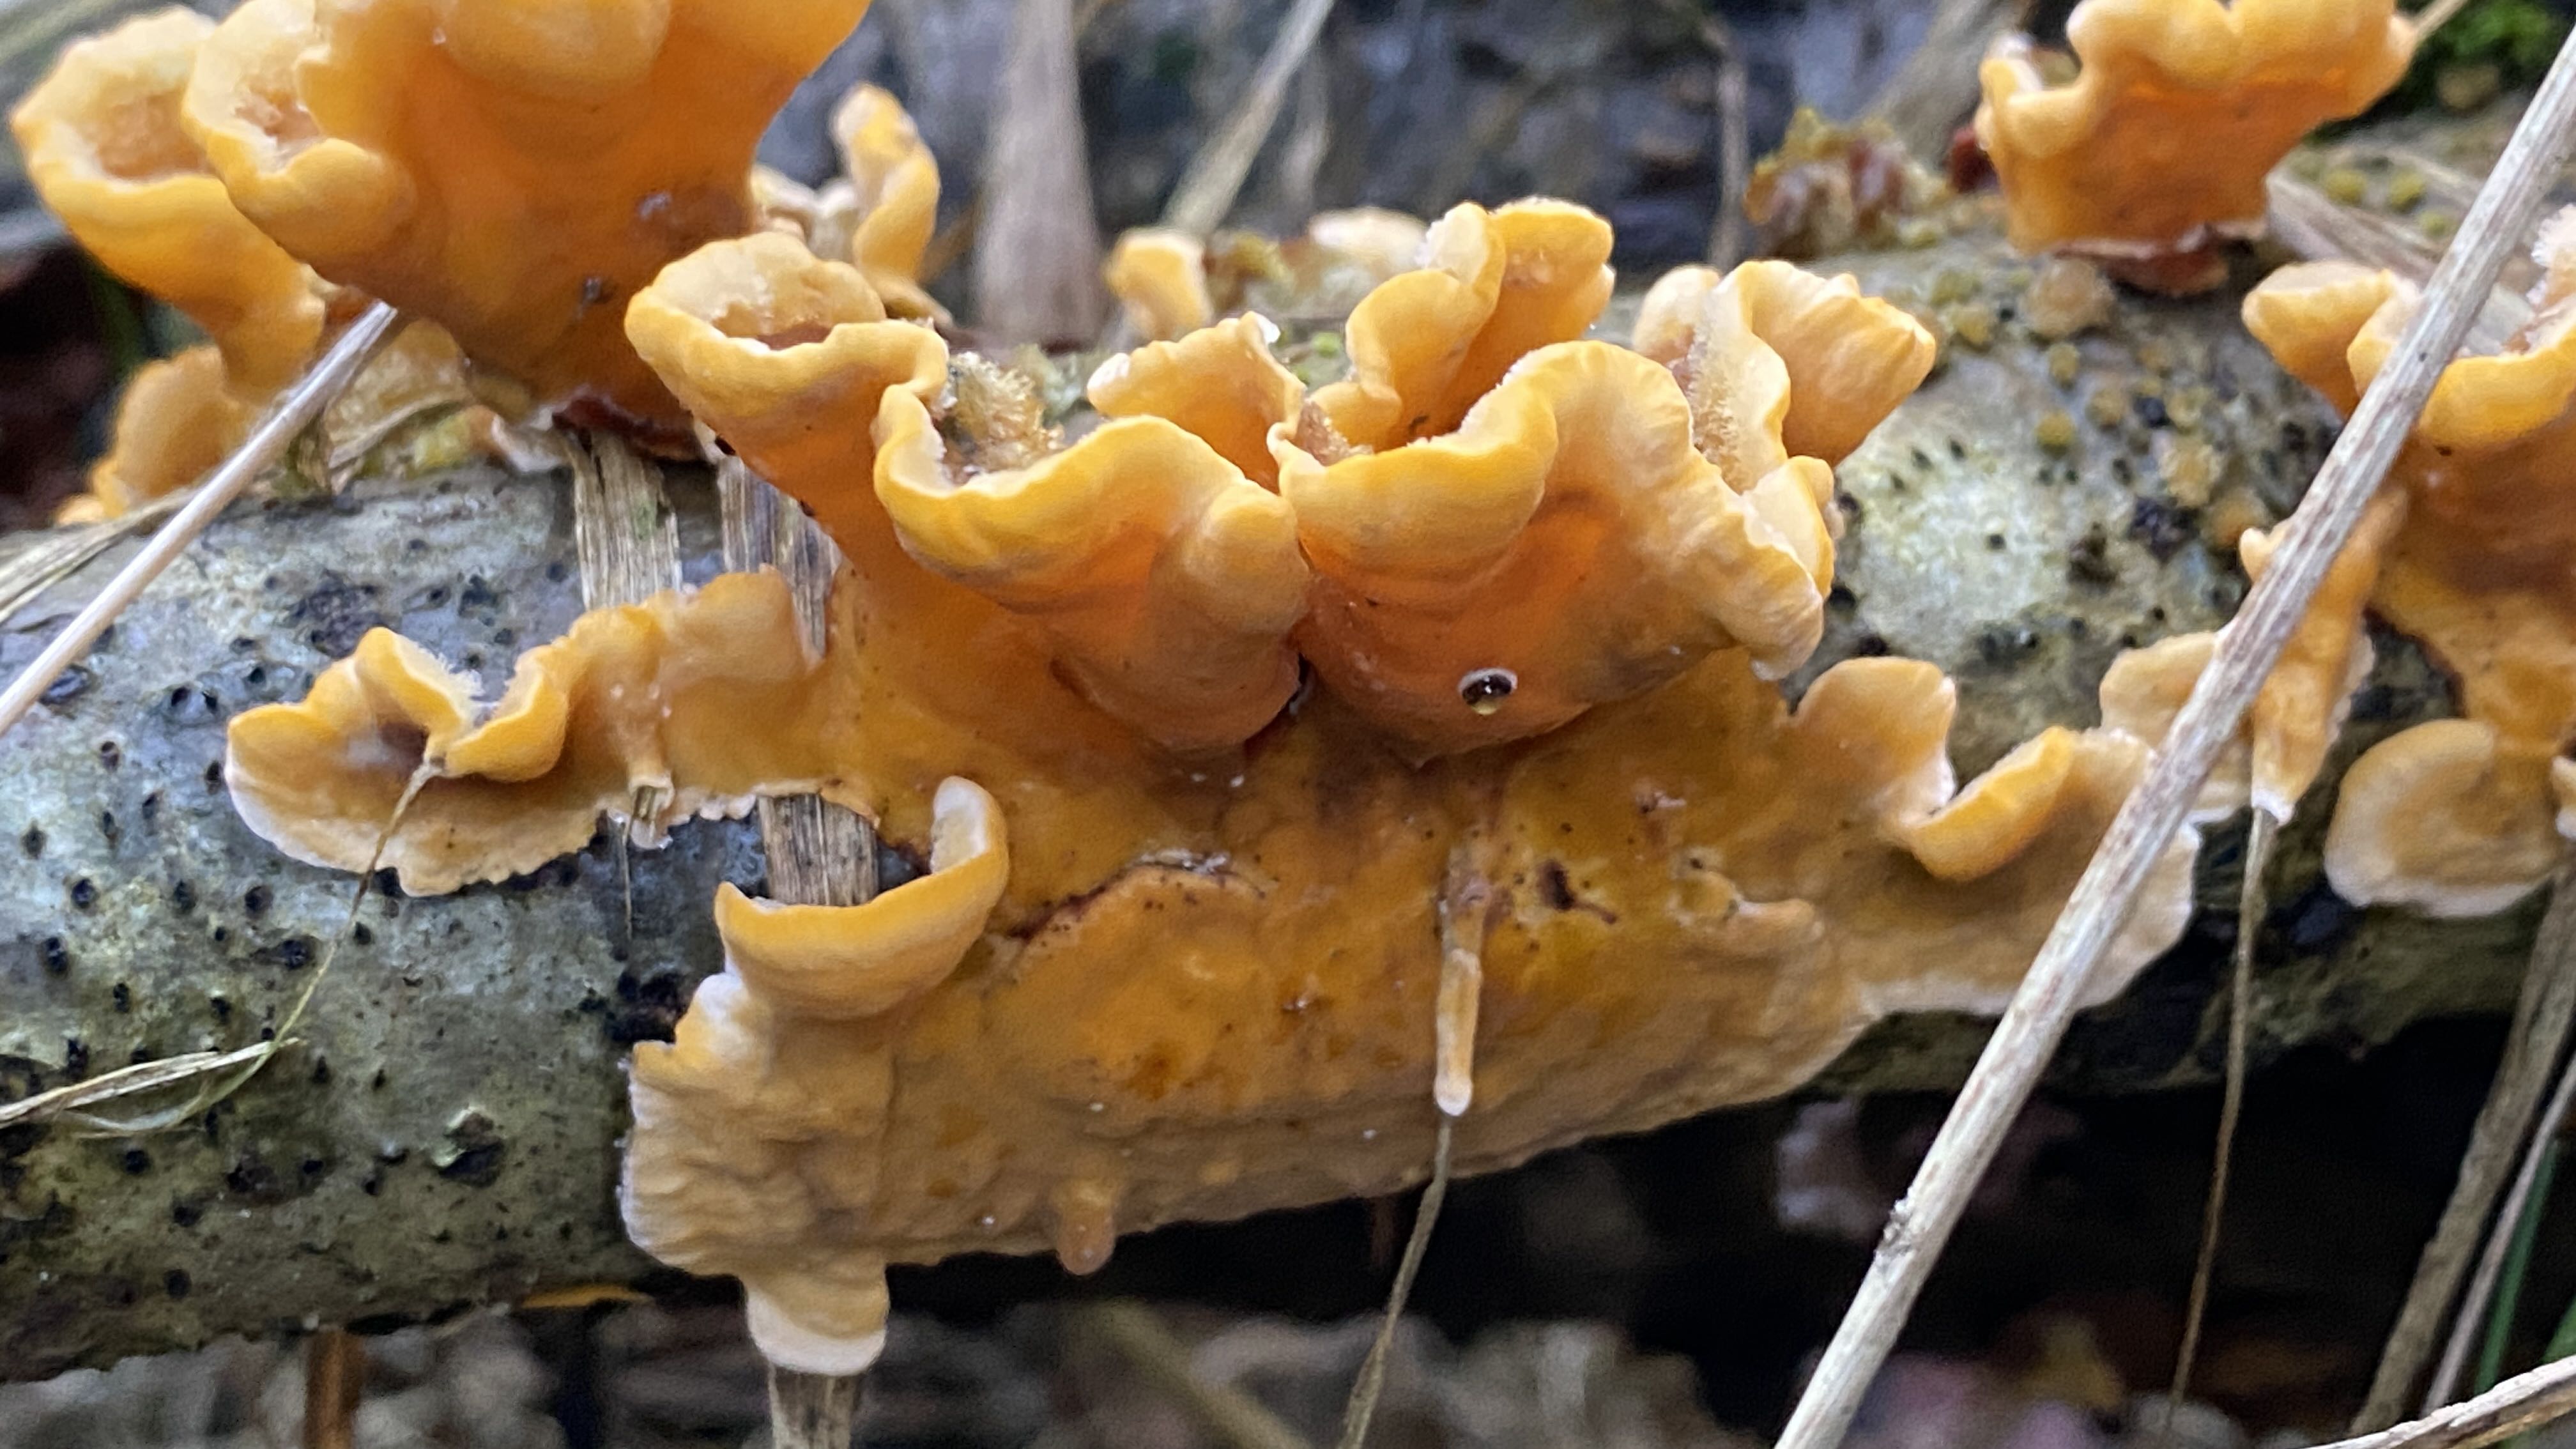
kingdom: Fungi
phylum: Basidiomycota
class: Agaricomycetes
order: Russulales
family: Stereaceae
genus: Stereum
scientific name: Stereum hirsutum
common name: håret lædersvamp
